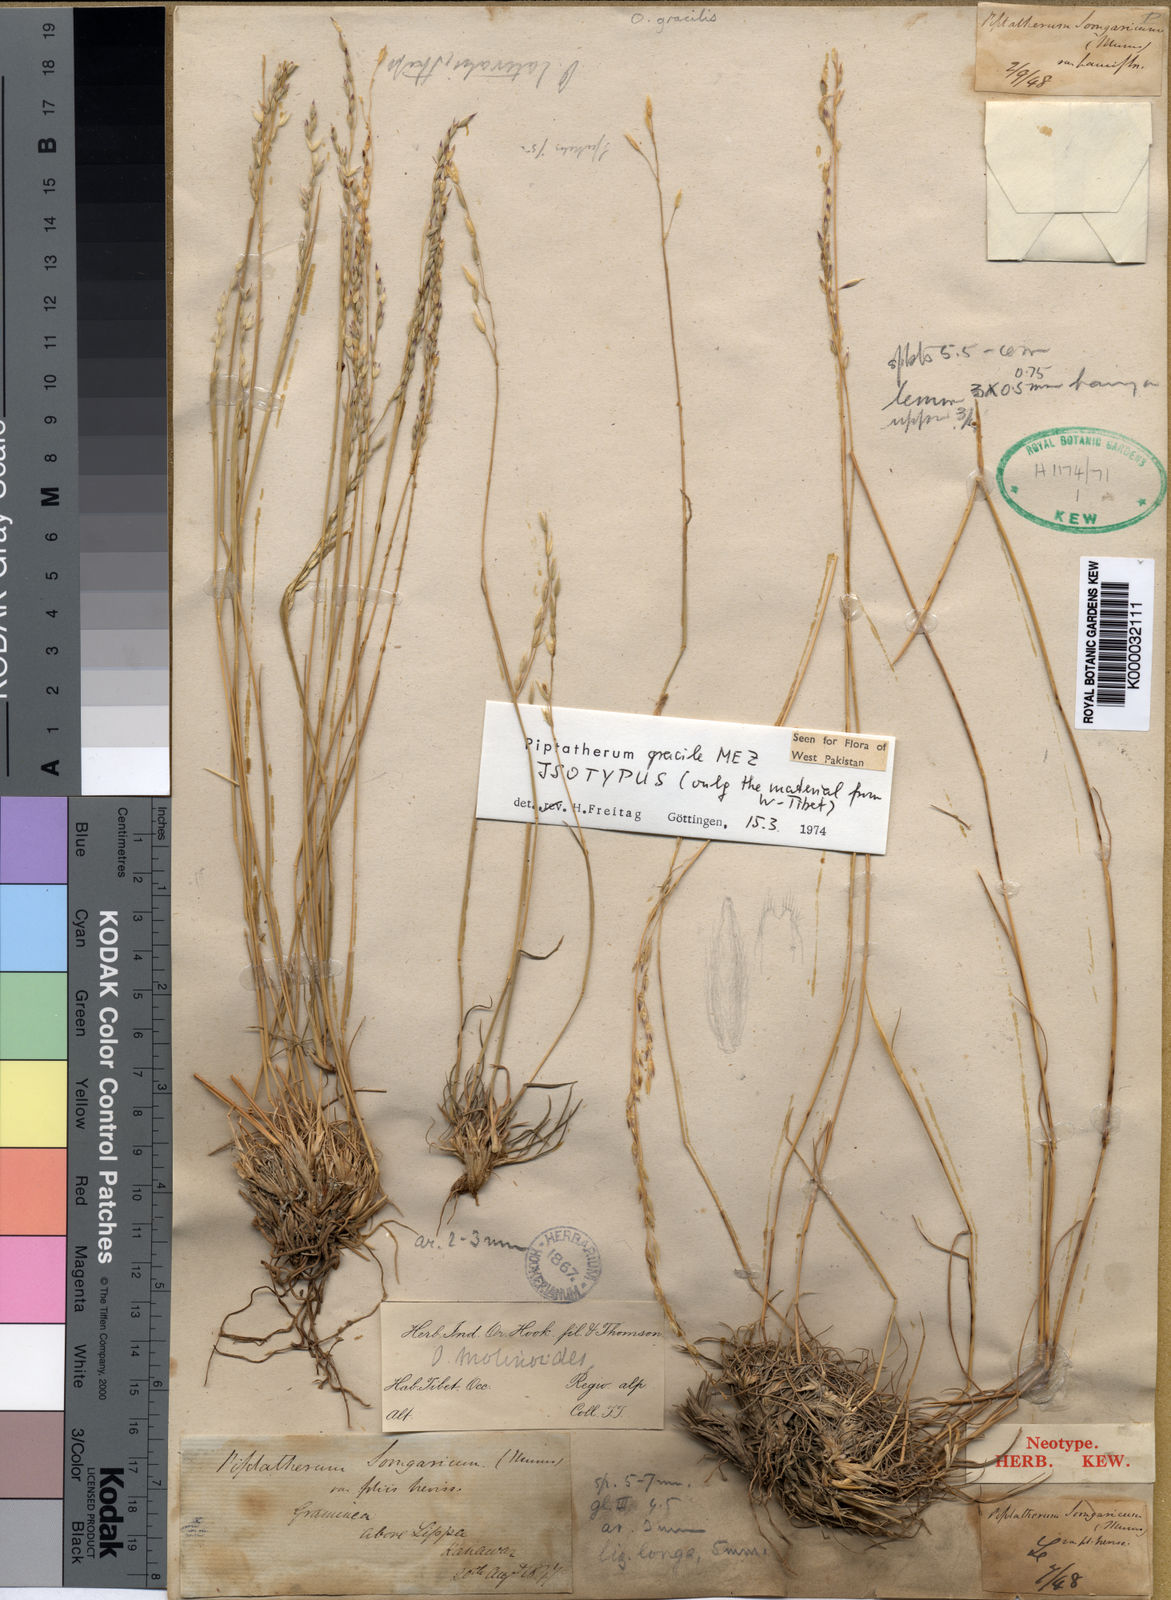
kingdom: Plantae
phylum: Tracheophyta
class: Liliopsida
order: Poales
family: Poaceae
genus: Piptatherum
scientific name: Piptatherum gracile
